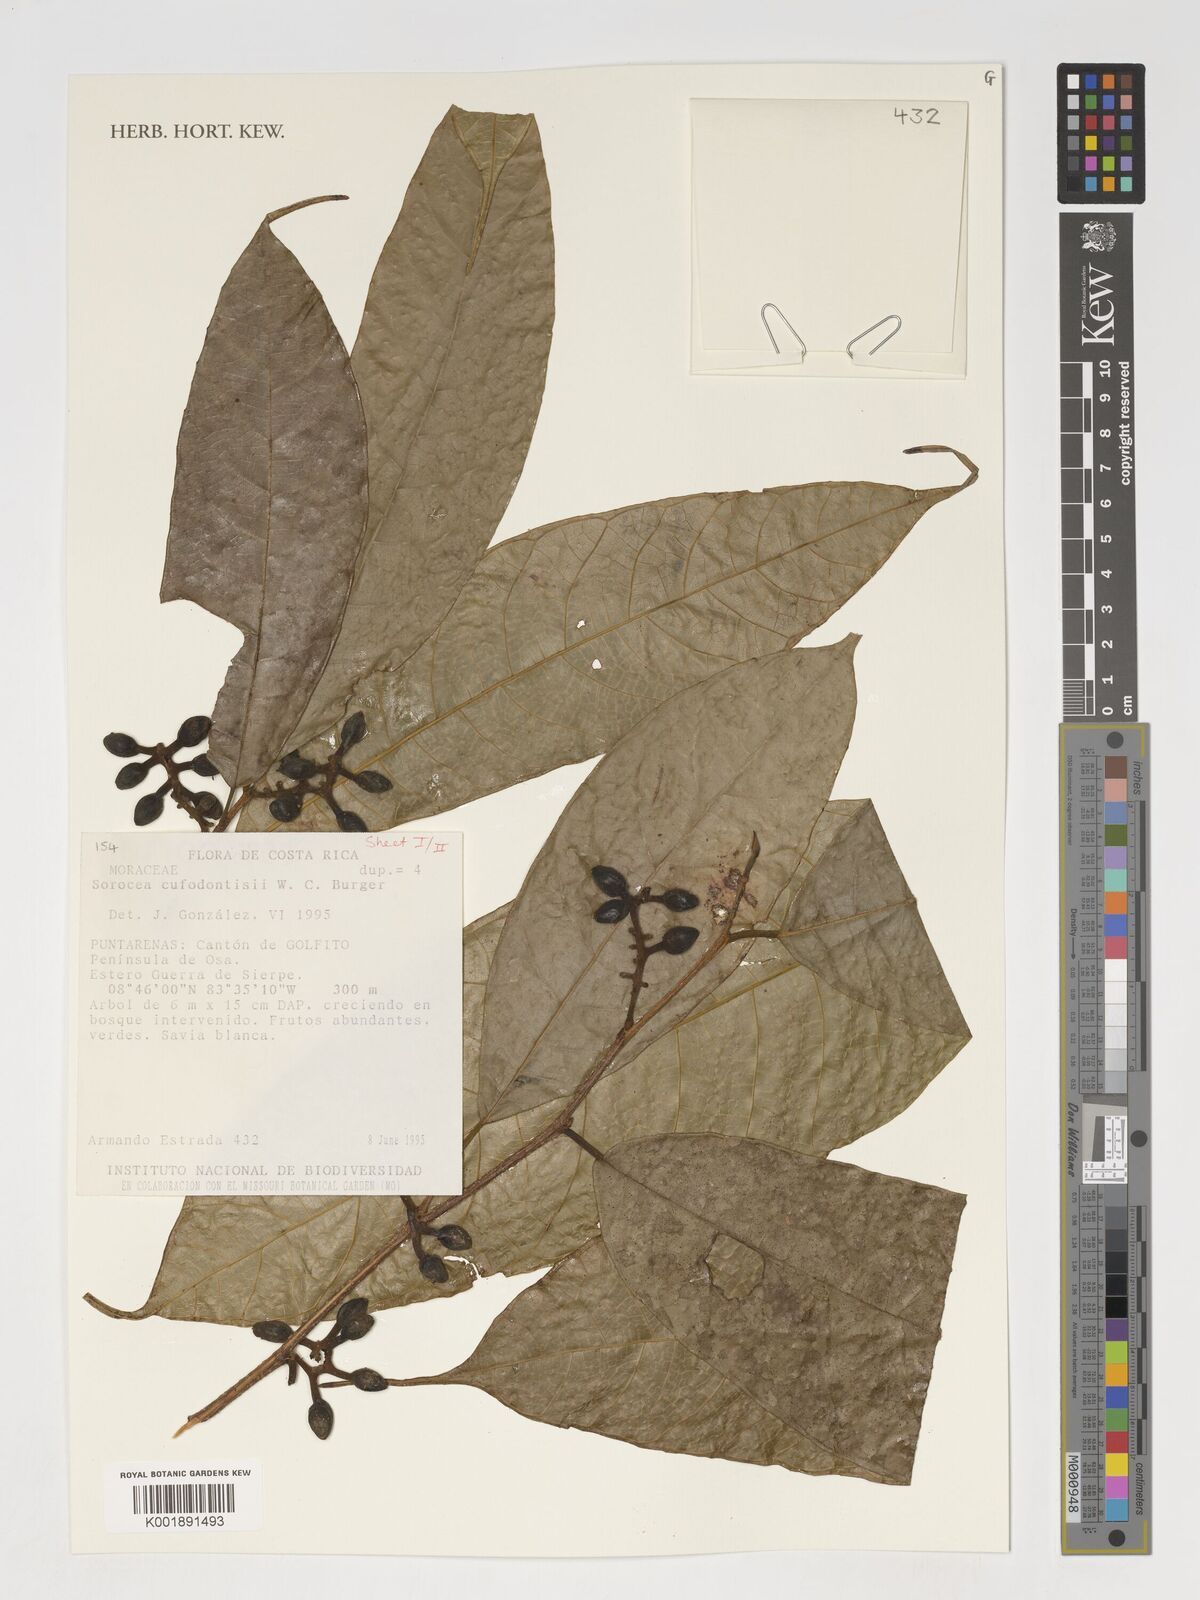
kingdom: Plantae
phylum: Tracheophyta
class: Magnoliopsida
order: Rosales
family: Moraceae
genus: Sorocea
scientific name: Sorocea pubivena
